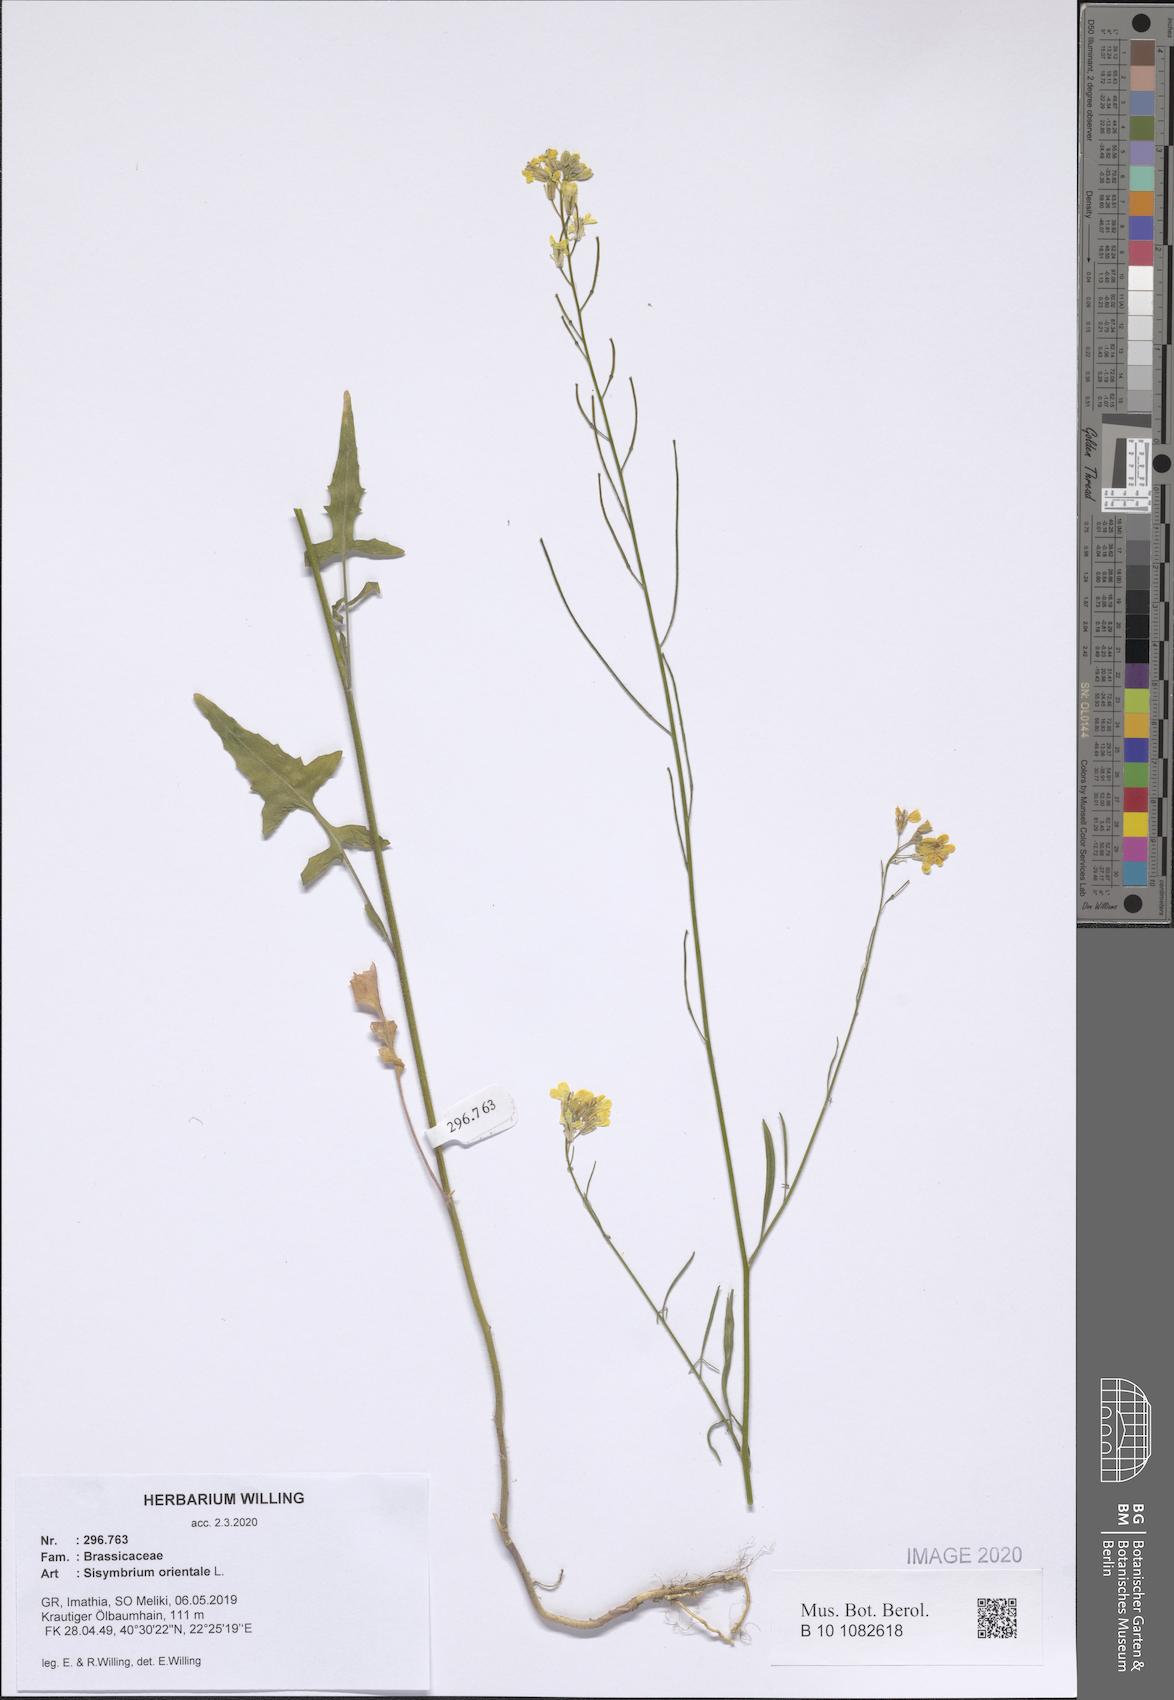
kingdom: Plantae
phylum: Tracheophyta
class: Magnoliopsida
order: Brassicales
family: Brassicaceae
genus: Sisymbrium
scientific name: Sisymbrium orientale
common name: Eastern rocket
